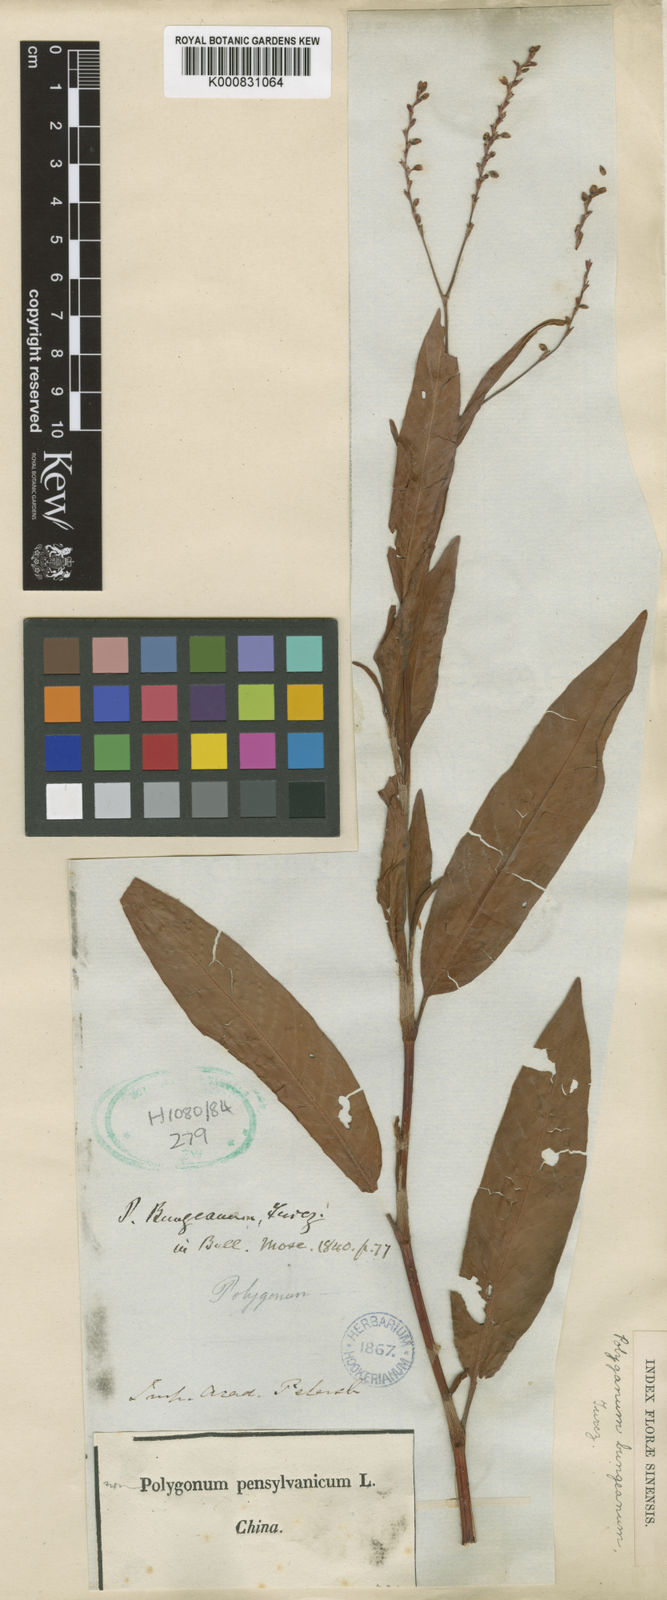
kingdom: Plantae
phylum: Tracheophyta
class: Magnoliopsida
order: Caryophyllales
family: Polygonaceae
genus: Persicaria
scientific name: Persicaria bungeana
